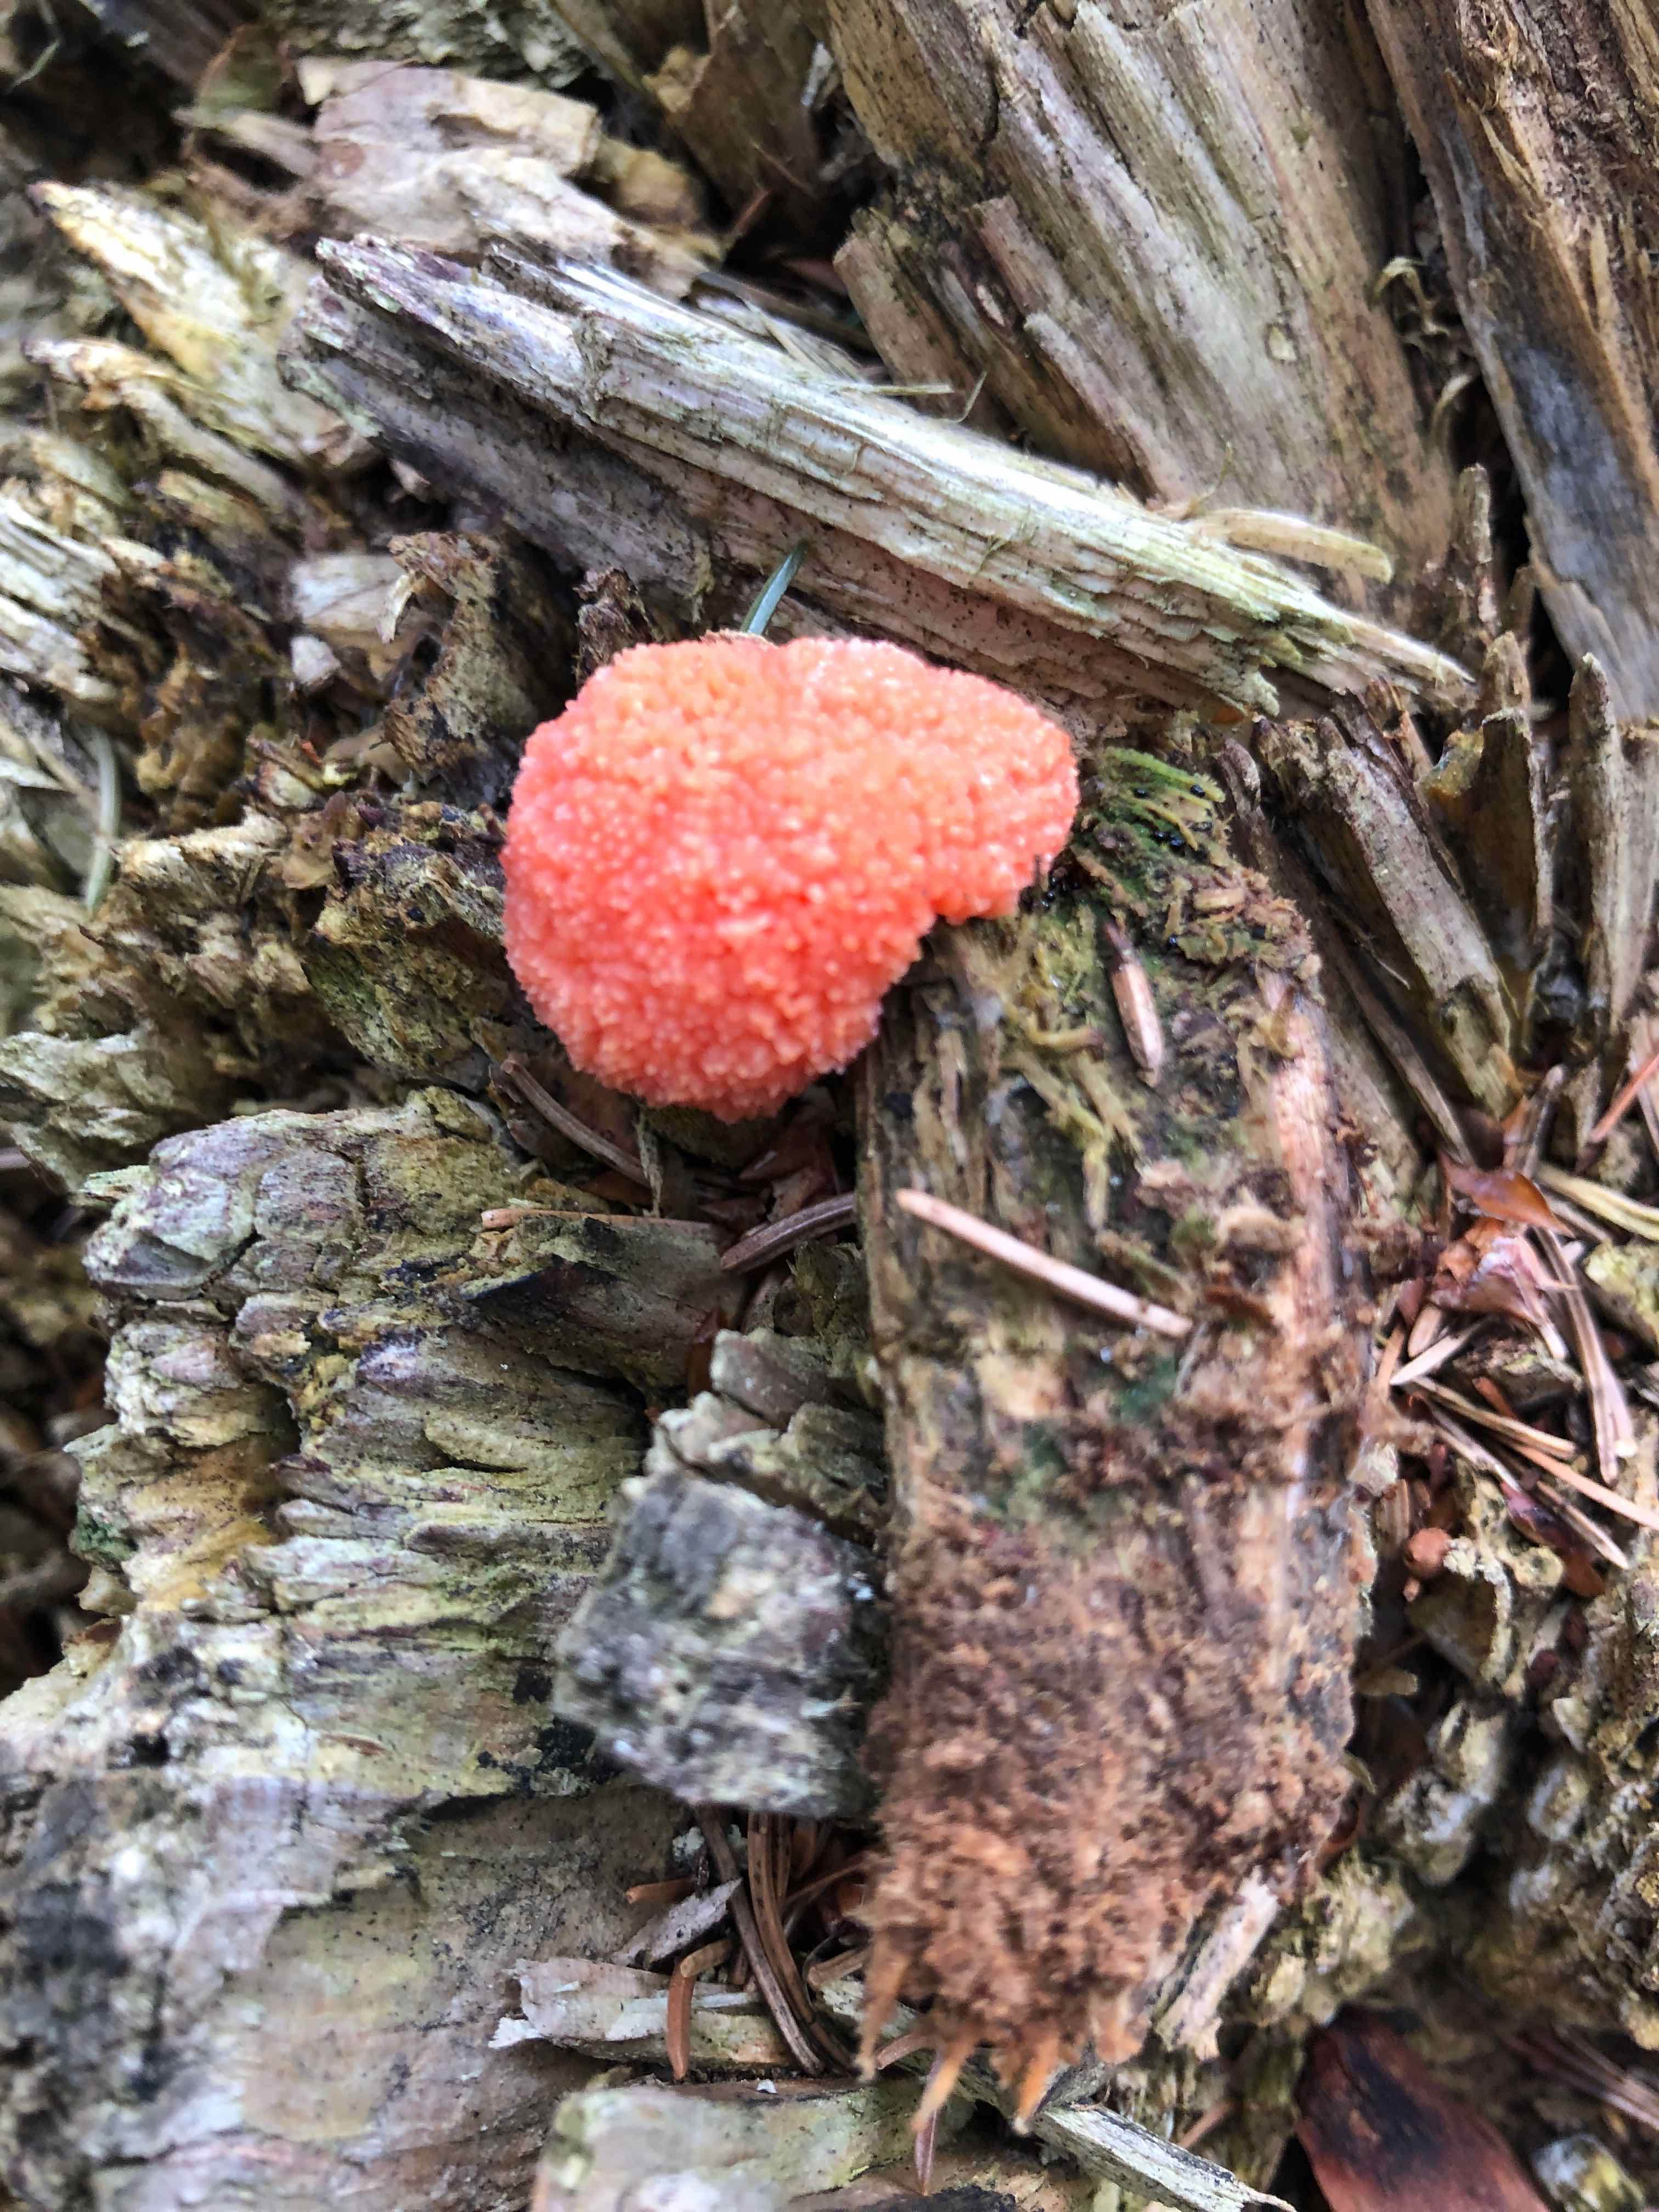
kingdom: Protozoa
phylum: Mycetozoa
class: Myxomycetes
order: Cribrariales
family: Tubiferaceae
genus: Tubifera
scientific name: Tubifera ferruginosa
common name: kanel-støvrør
